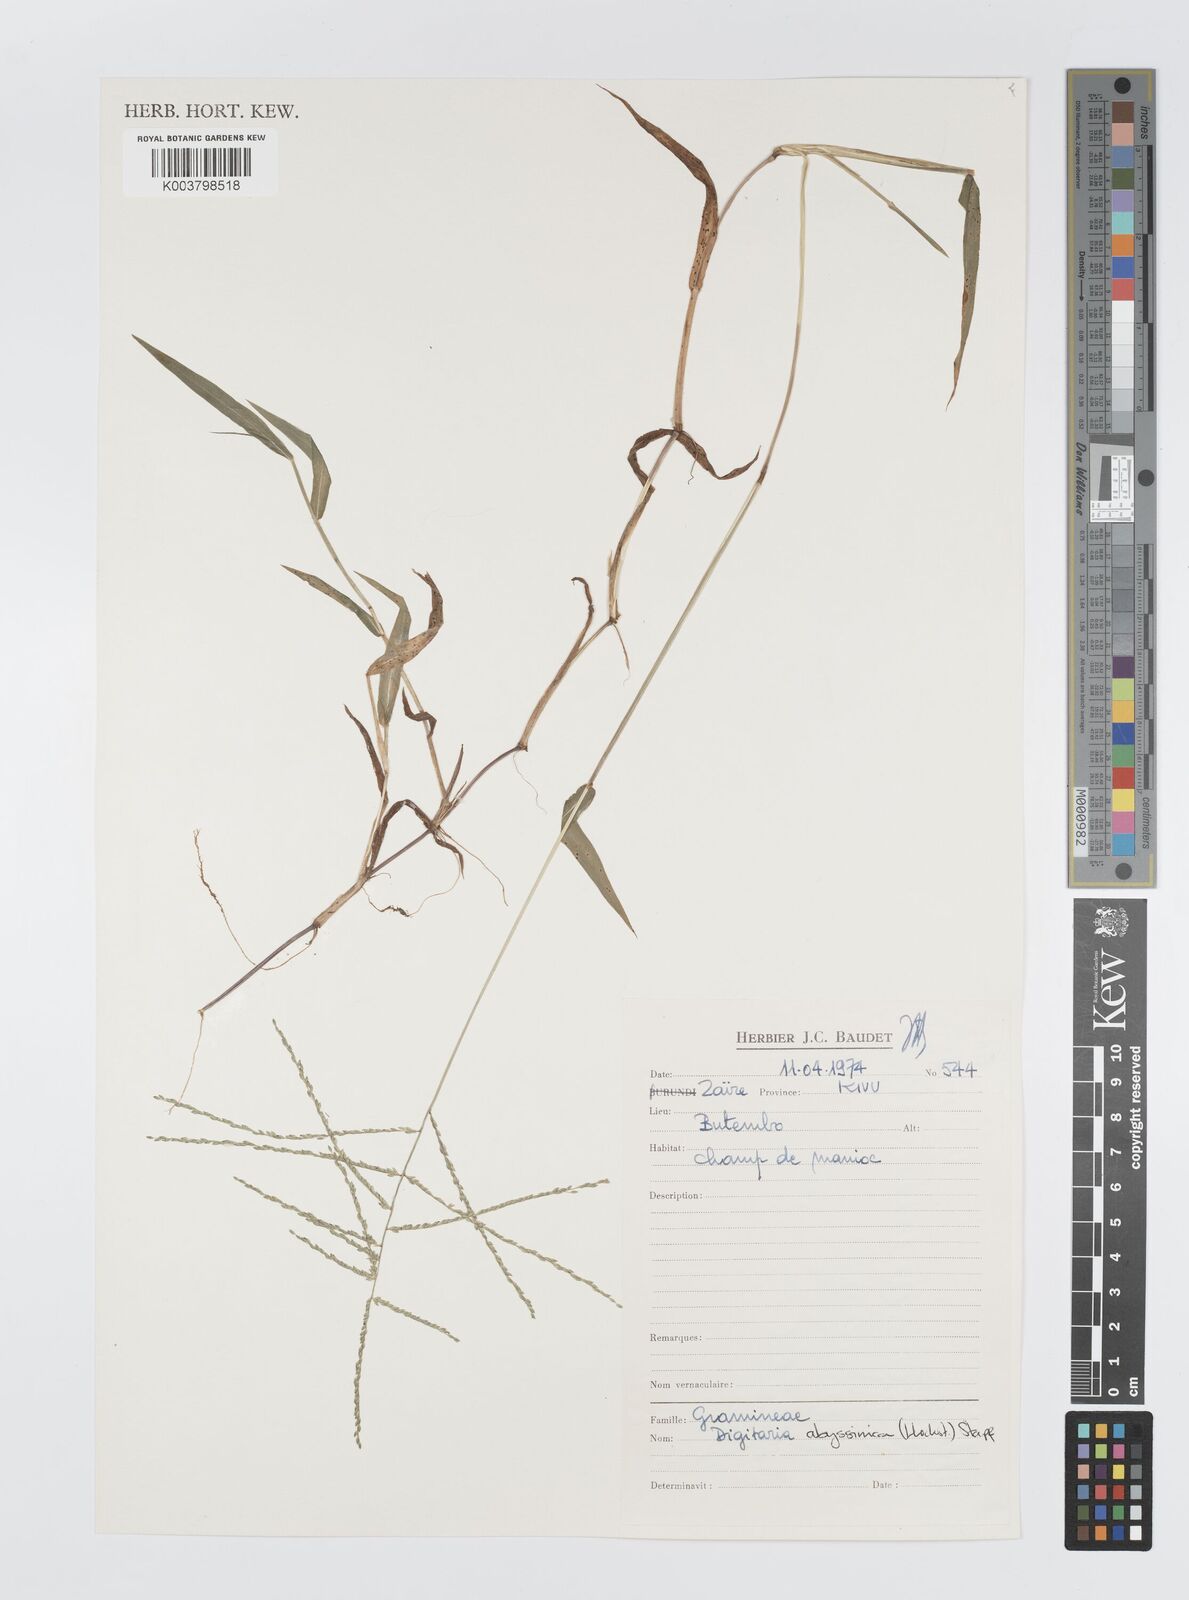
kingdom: Plantae
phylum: Tracheophyta
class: Liliopsida
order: Poales
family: Poaceae
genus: Digitaria
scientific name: Digitaria abyssinica
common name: African couchgrass
